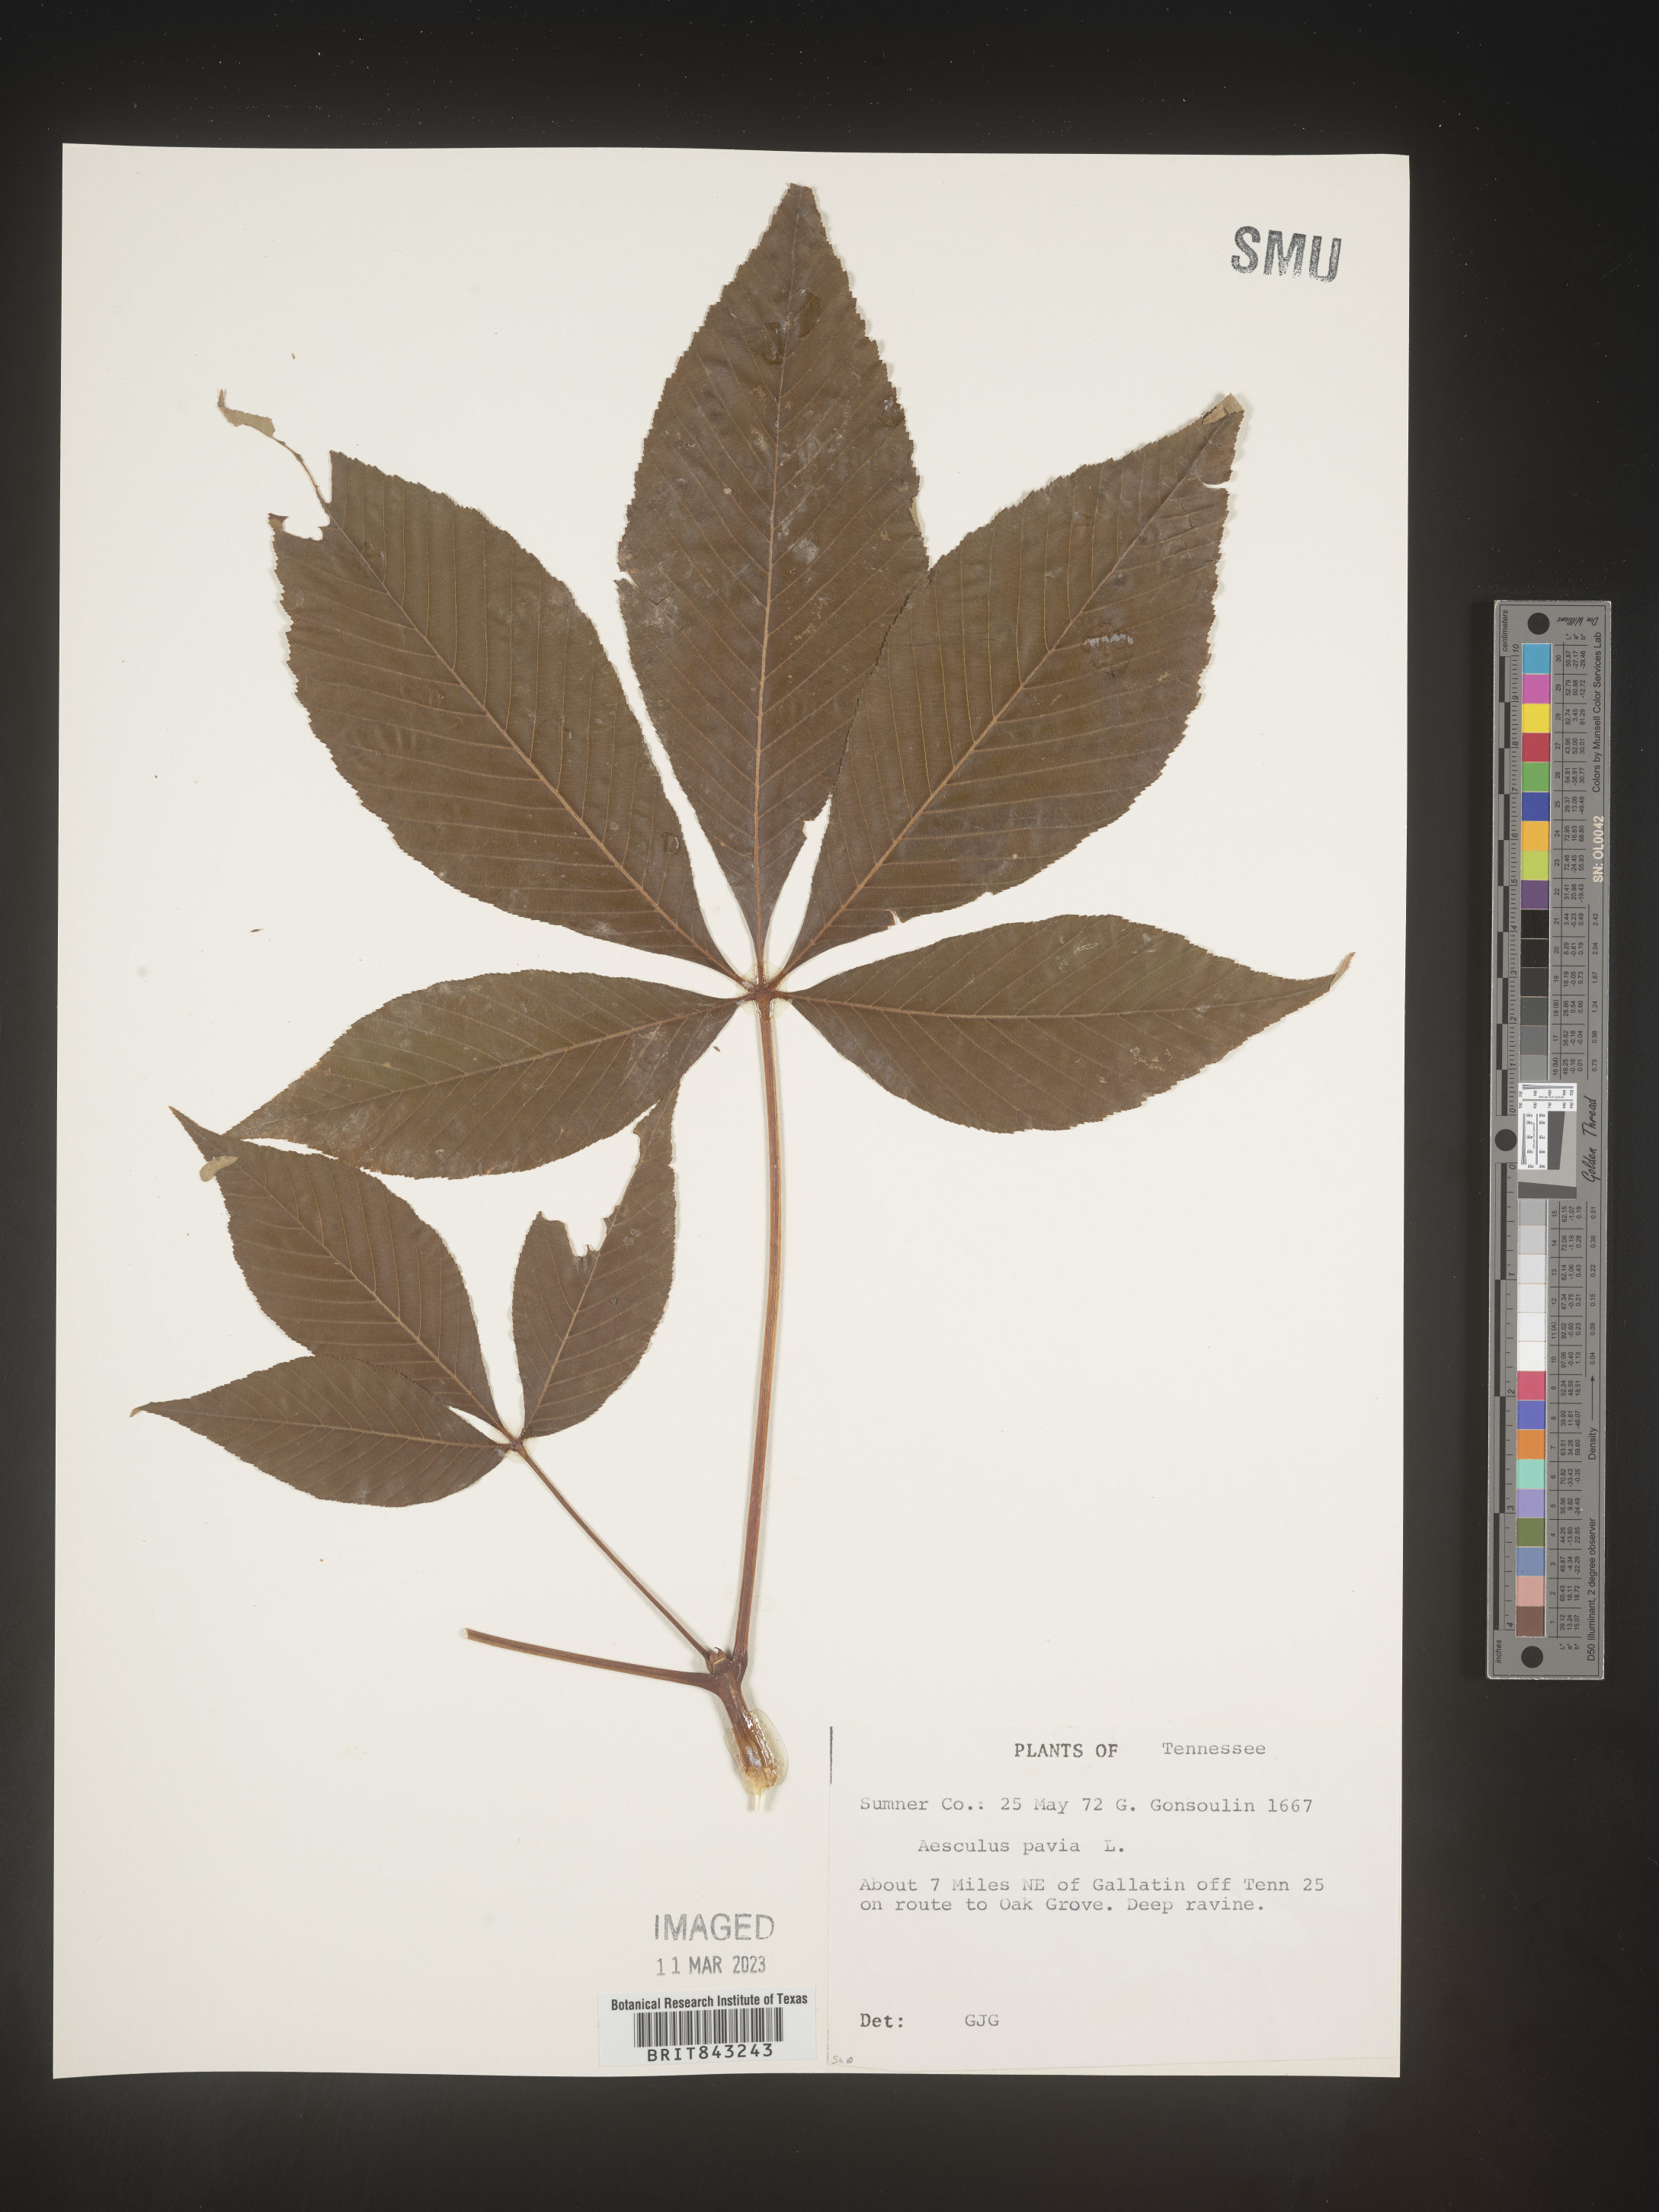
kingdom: Plantae
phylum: Tracheophyta
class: Magnoliopsida
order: Sapindales
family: Sapindaceae
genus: Aesculus
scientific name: Aesculus pavia
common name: Red buckeye
